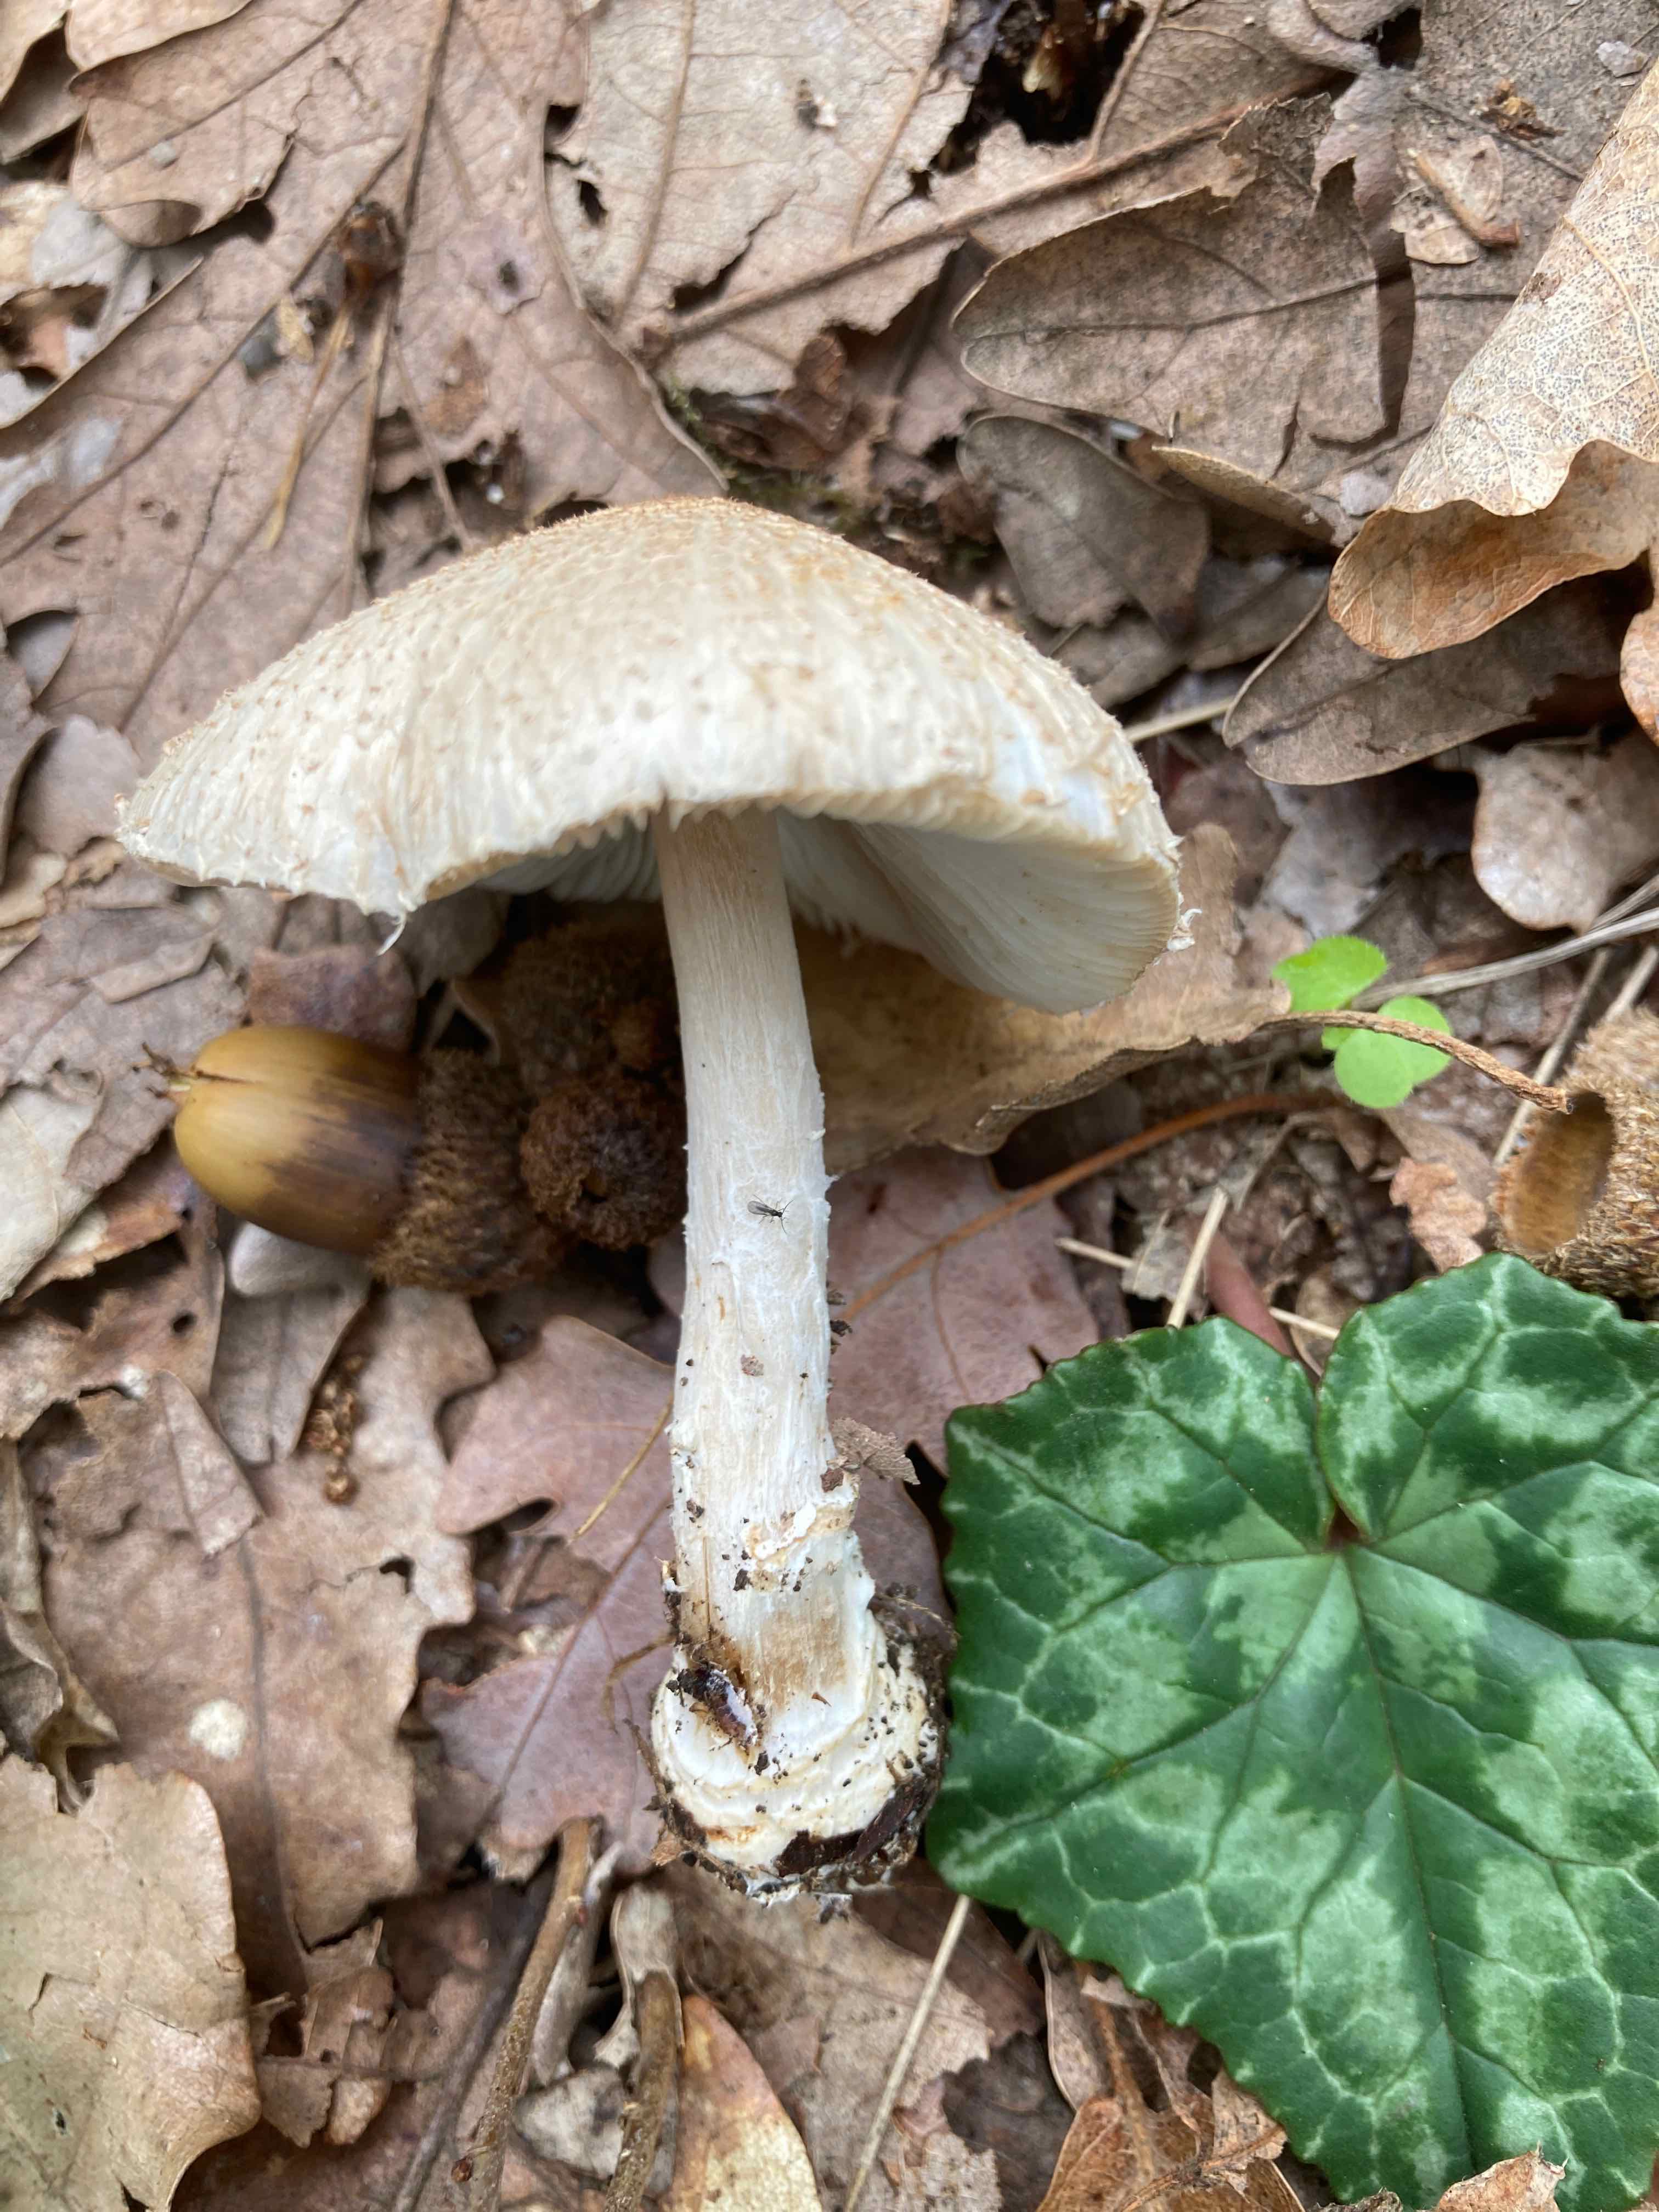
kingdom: Fungi
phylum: Basidiomycota
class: Agaricomycetes
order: Agaricales
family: Agaricaceae
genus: Lepiota
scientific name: Lepiota ignivolvata
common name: orangefodet parasolhat
